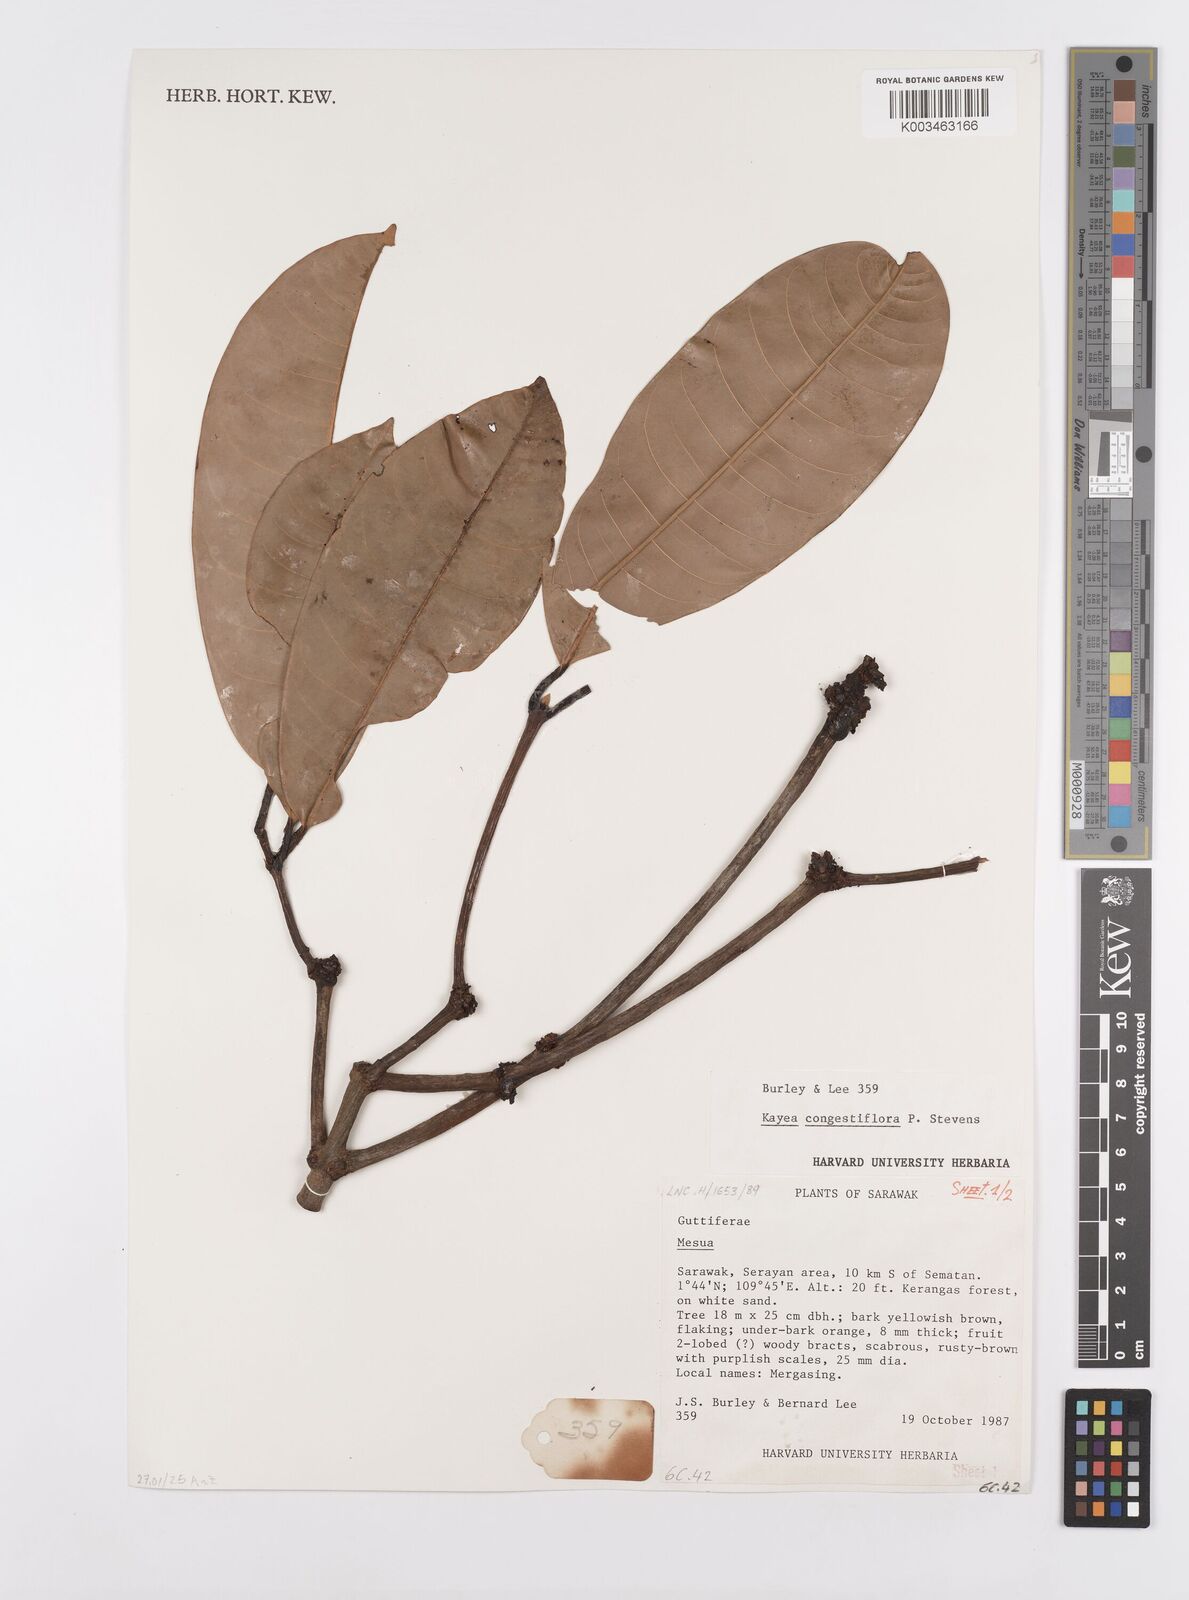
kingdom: Plantae
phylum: Tracheophyta
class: Magnoliopsida
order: Malpighiales
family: Calophyllaceae
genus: Kayea
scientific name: Kayea
